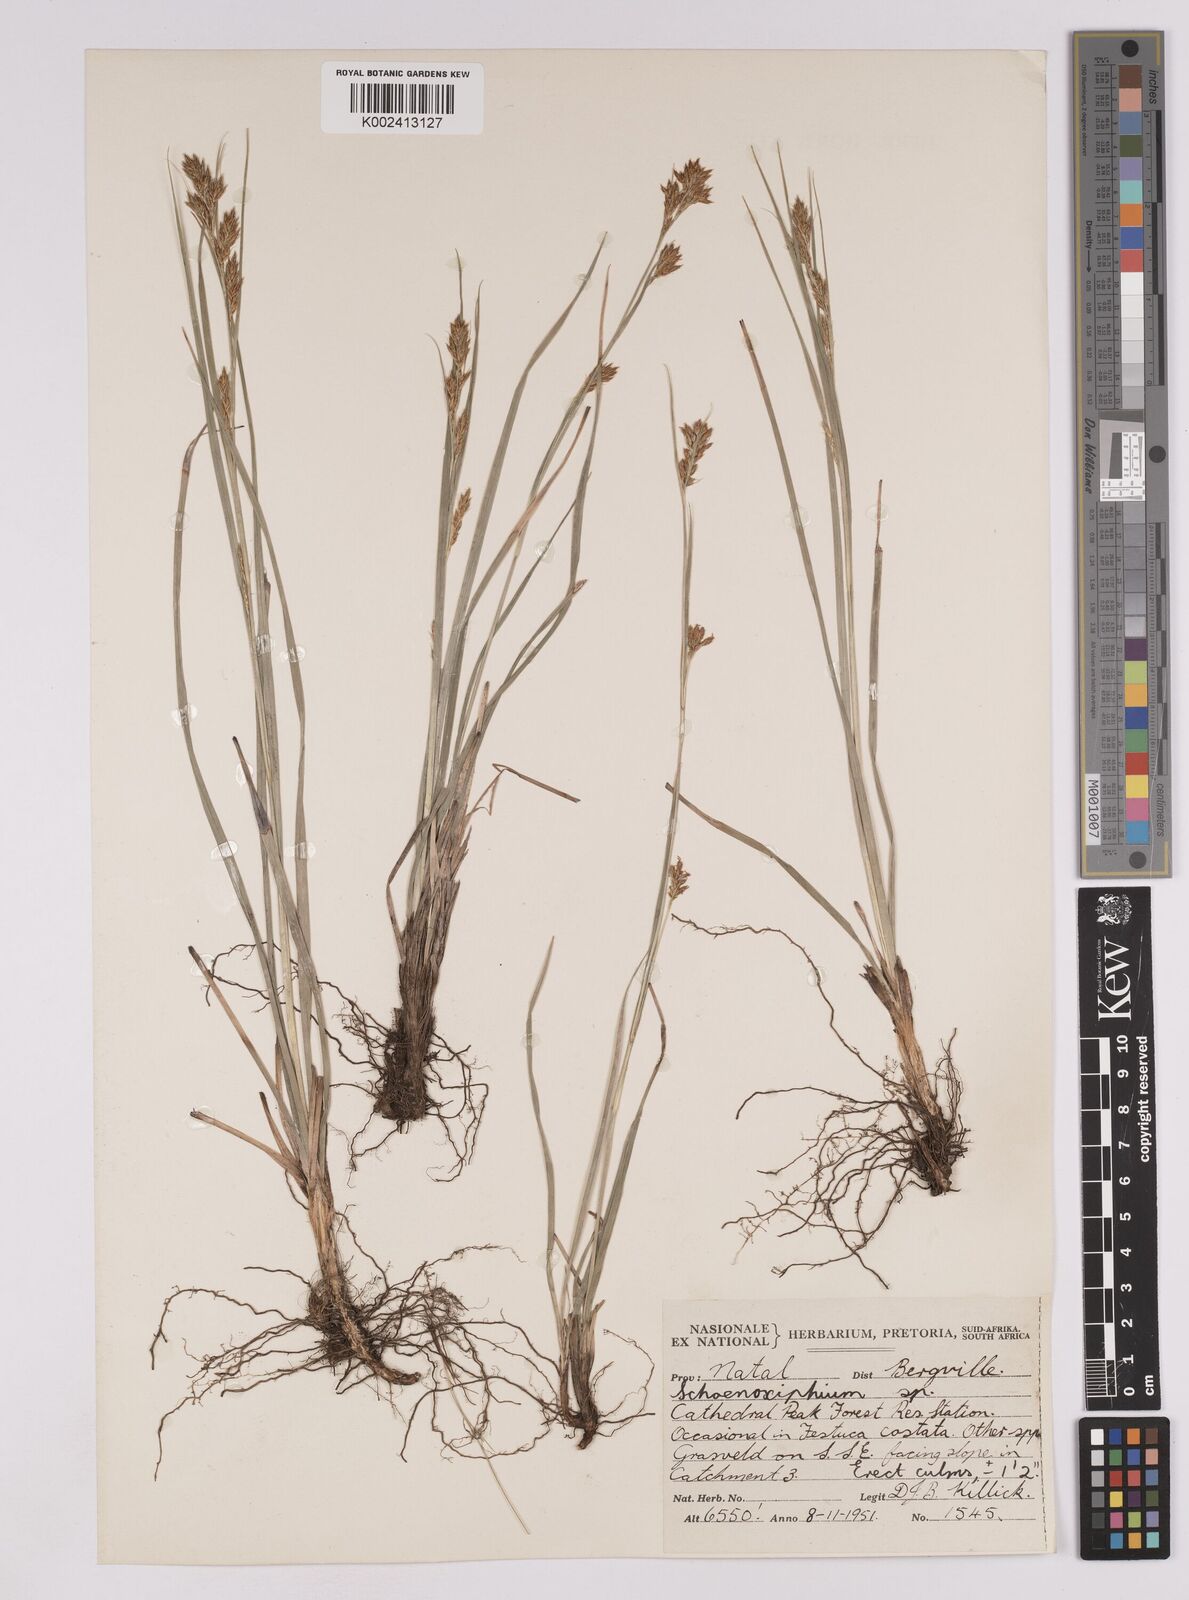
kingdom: Plantae
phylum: Tracheophyta
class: Liliopsida
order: Poales
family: Cyperaceae
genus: Carex
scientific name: Carex spartea
